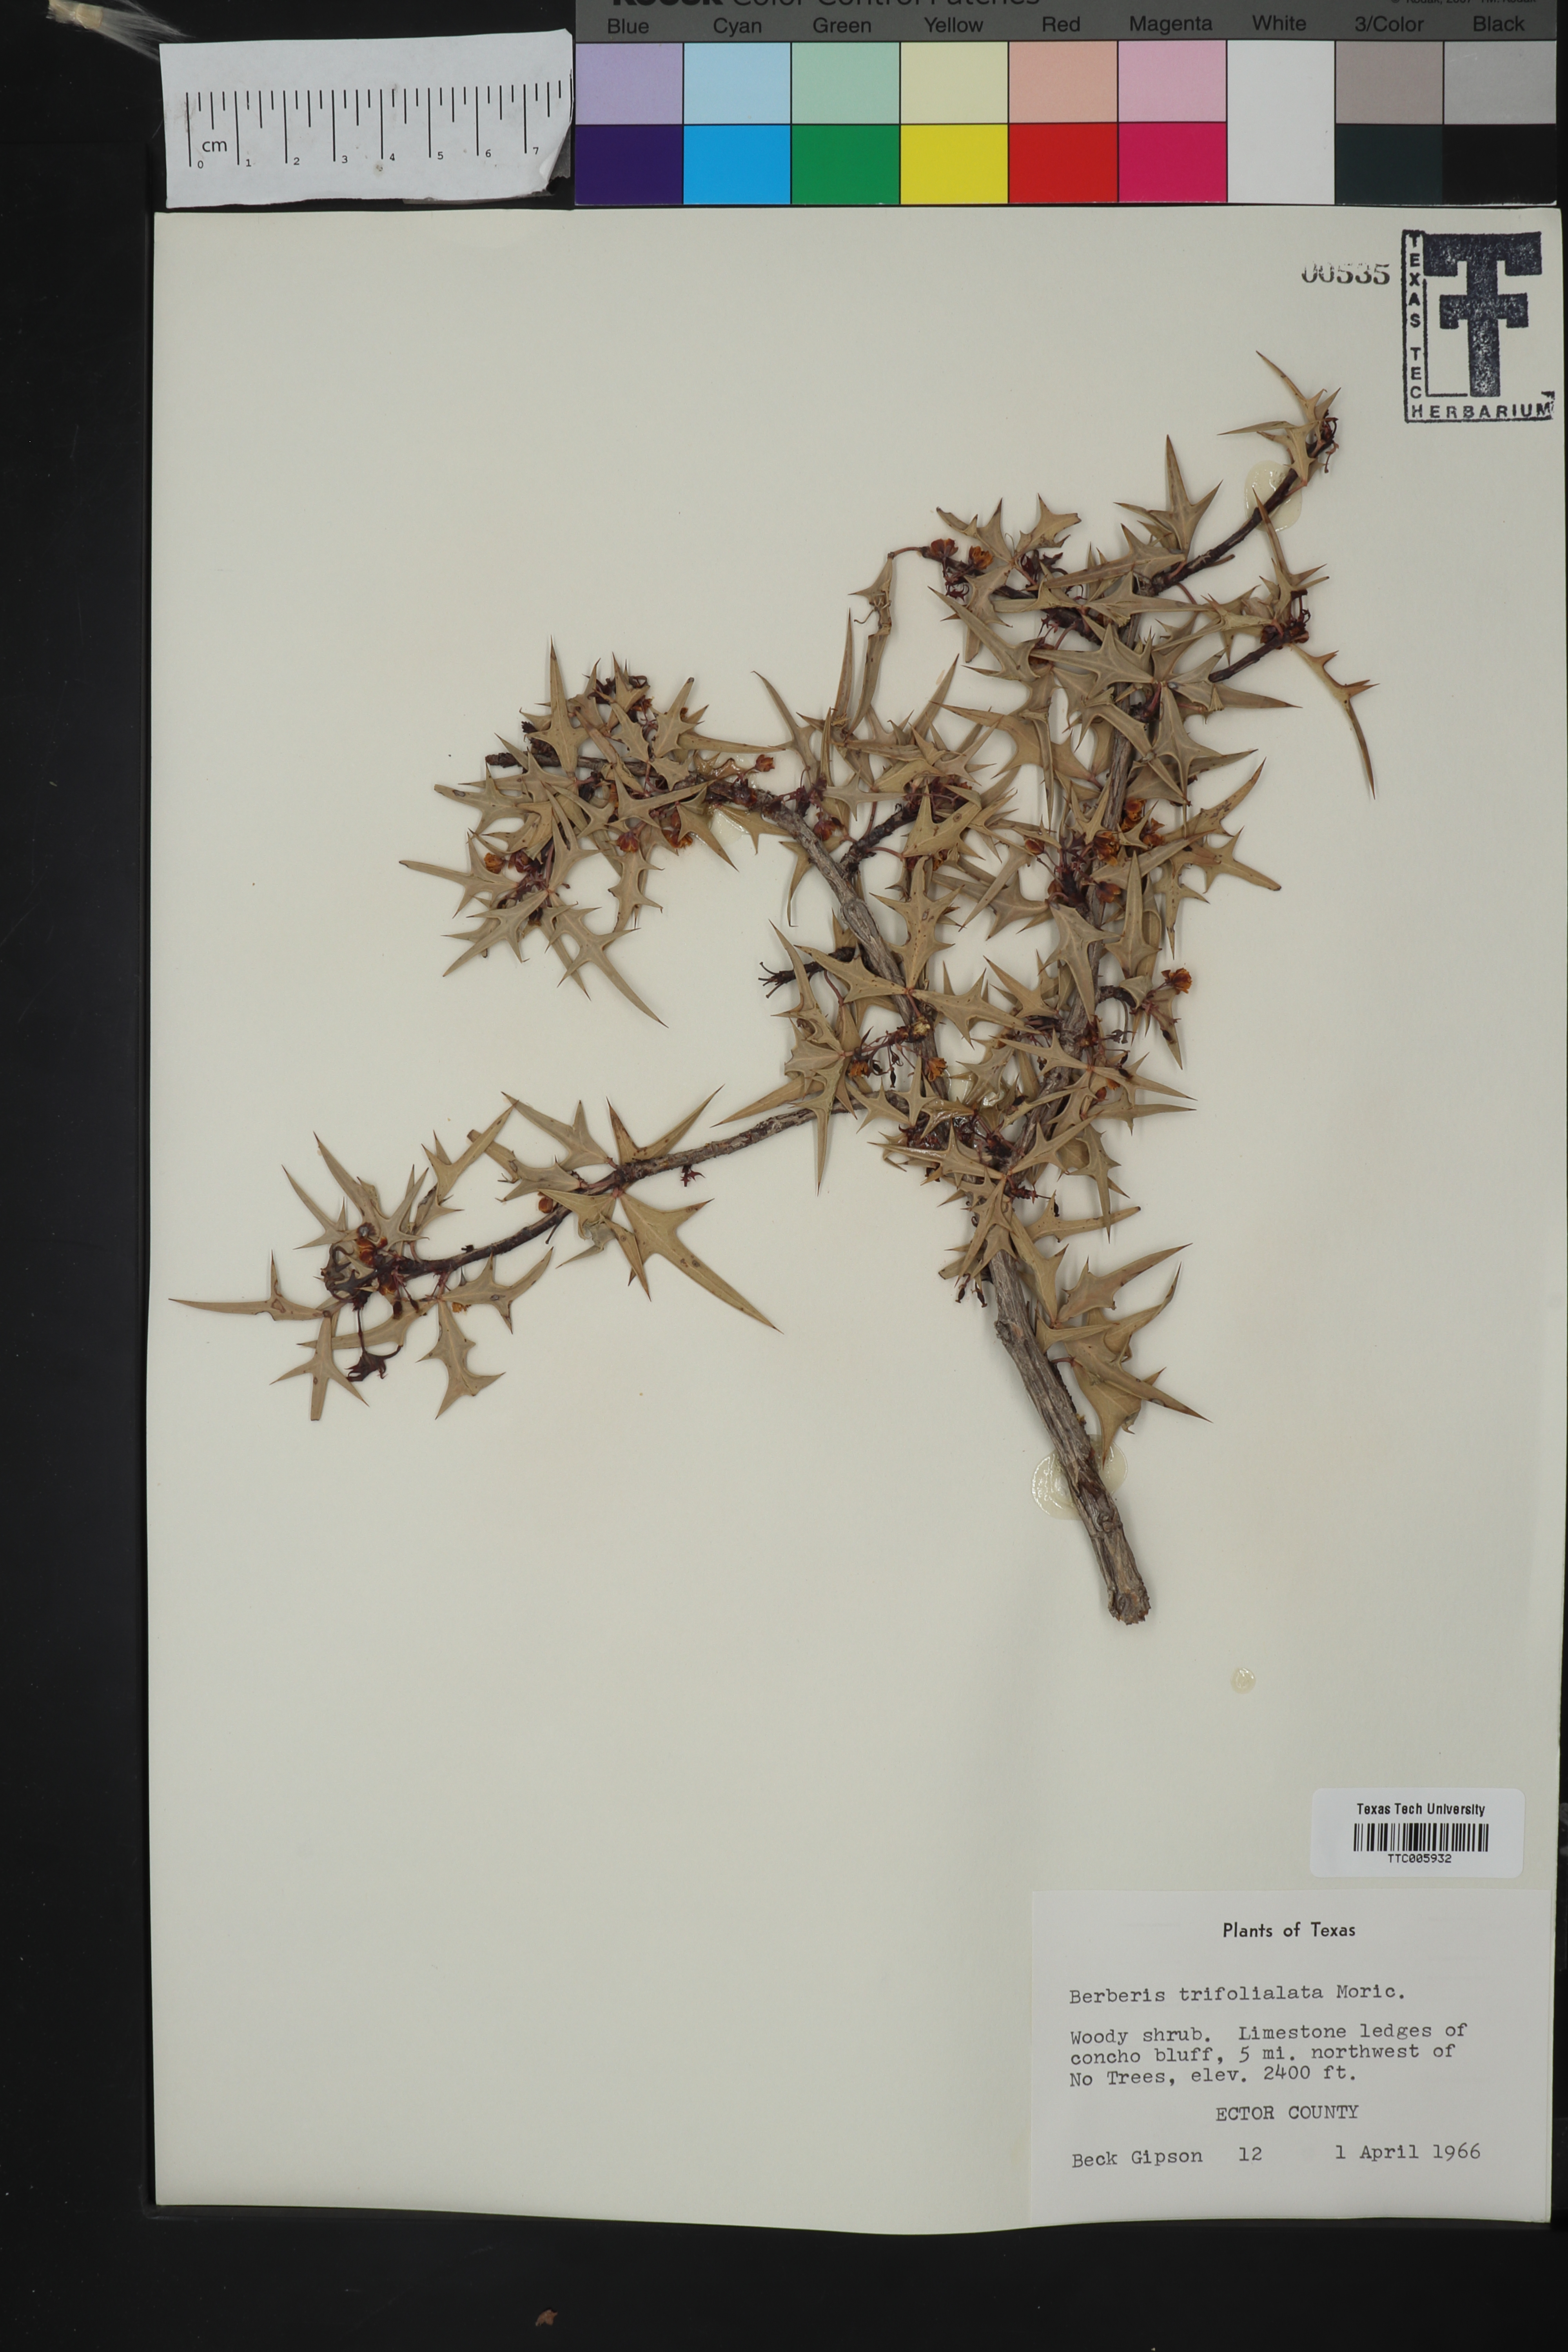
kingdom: Plantae
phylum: Tracheophyta
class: Magnoliopsida
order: Ranunculales
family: Berberidaceae
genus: Alloberberis
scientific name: Alloberberis trifoliolata
